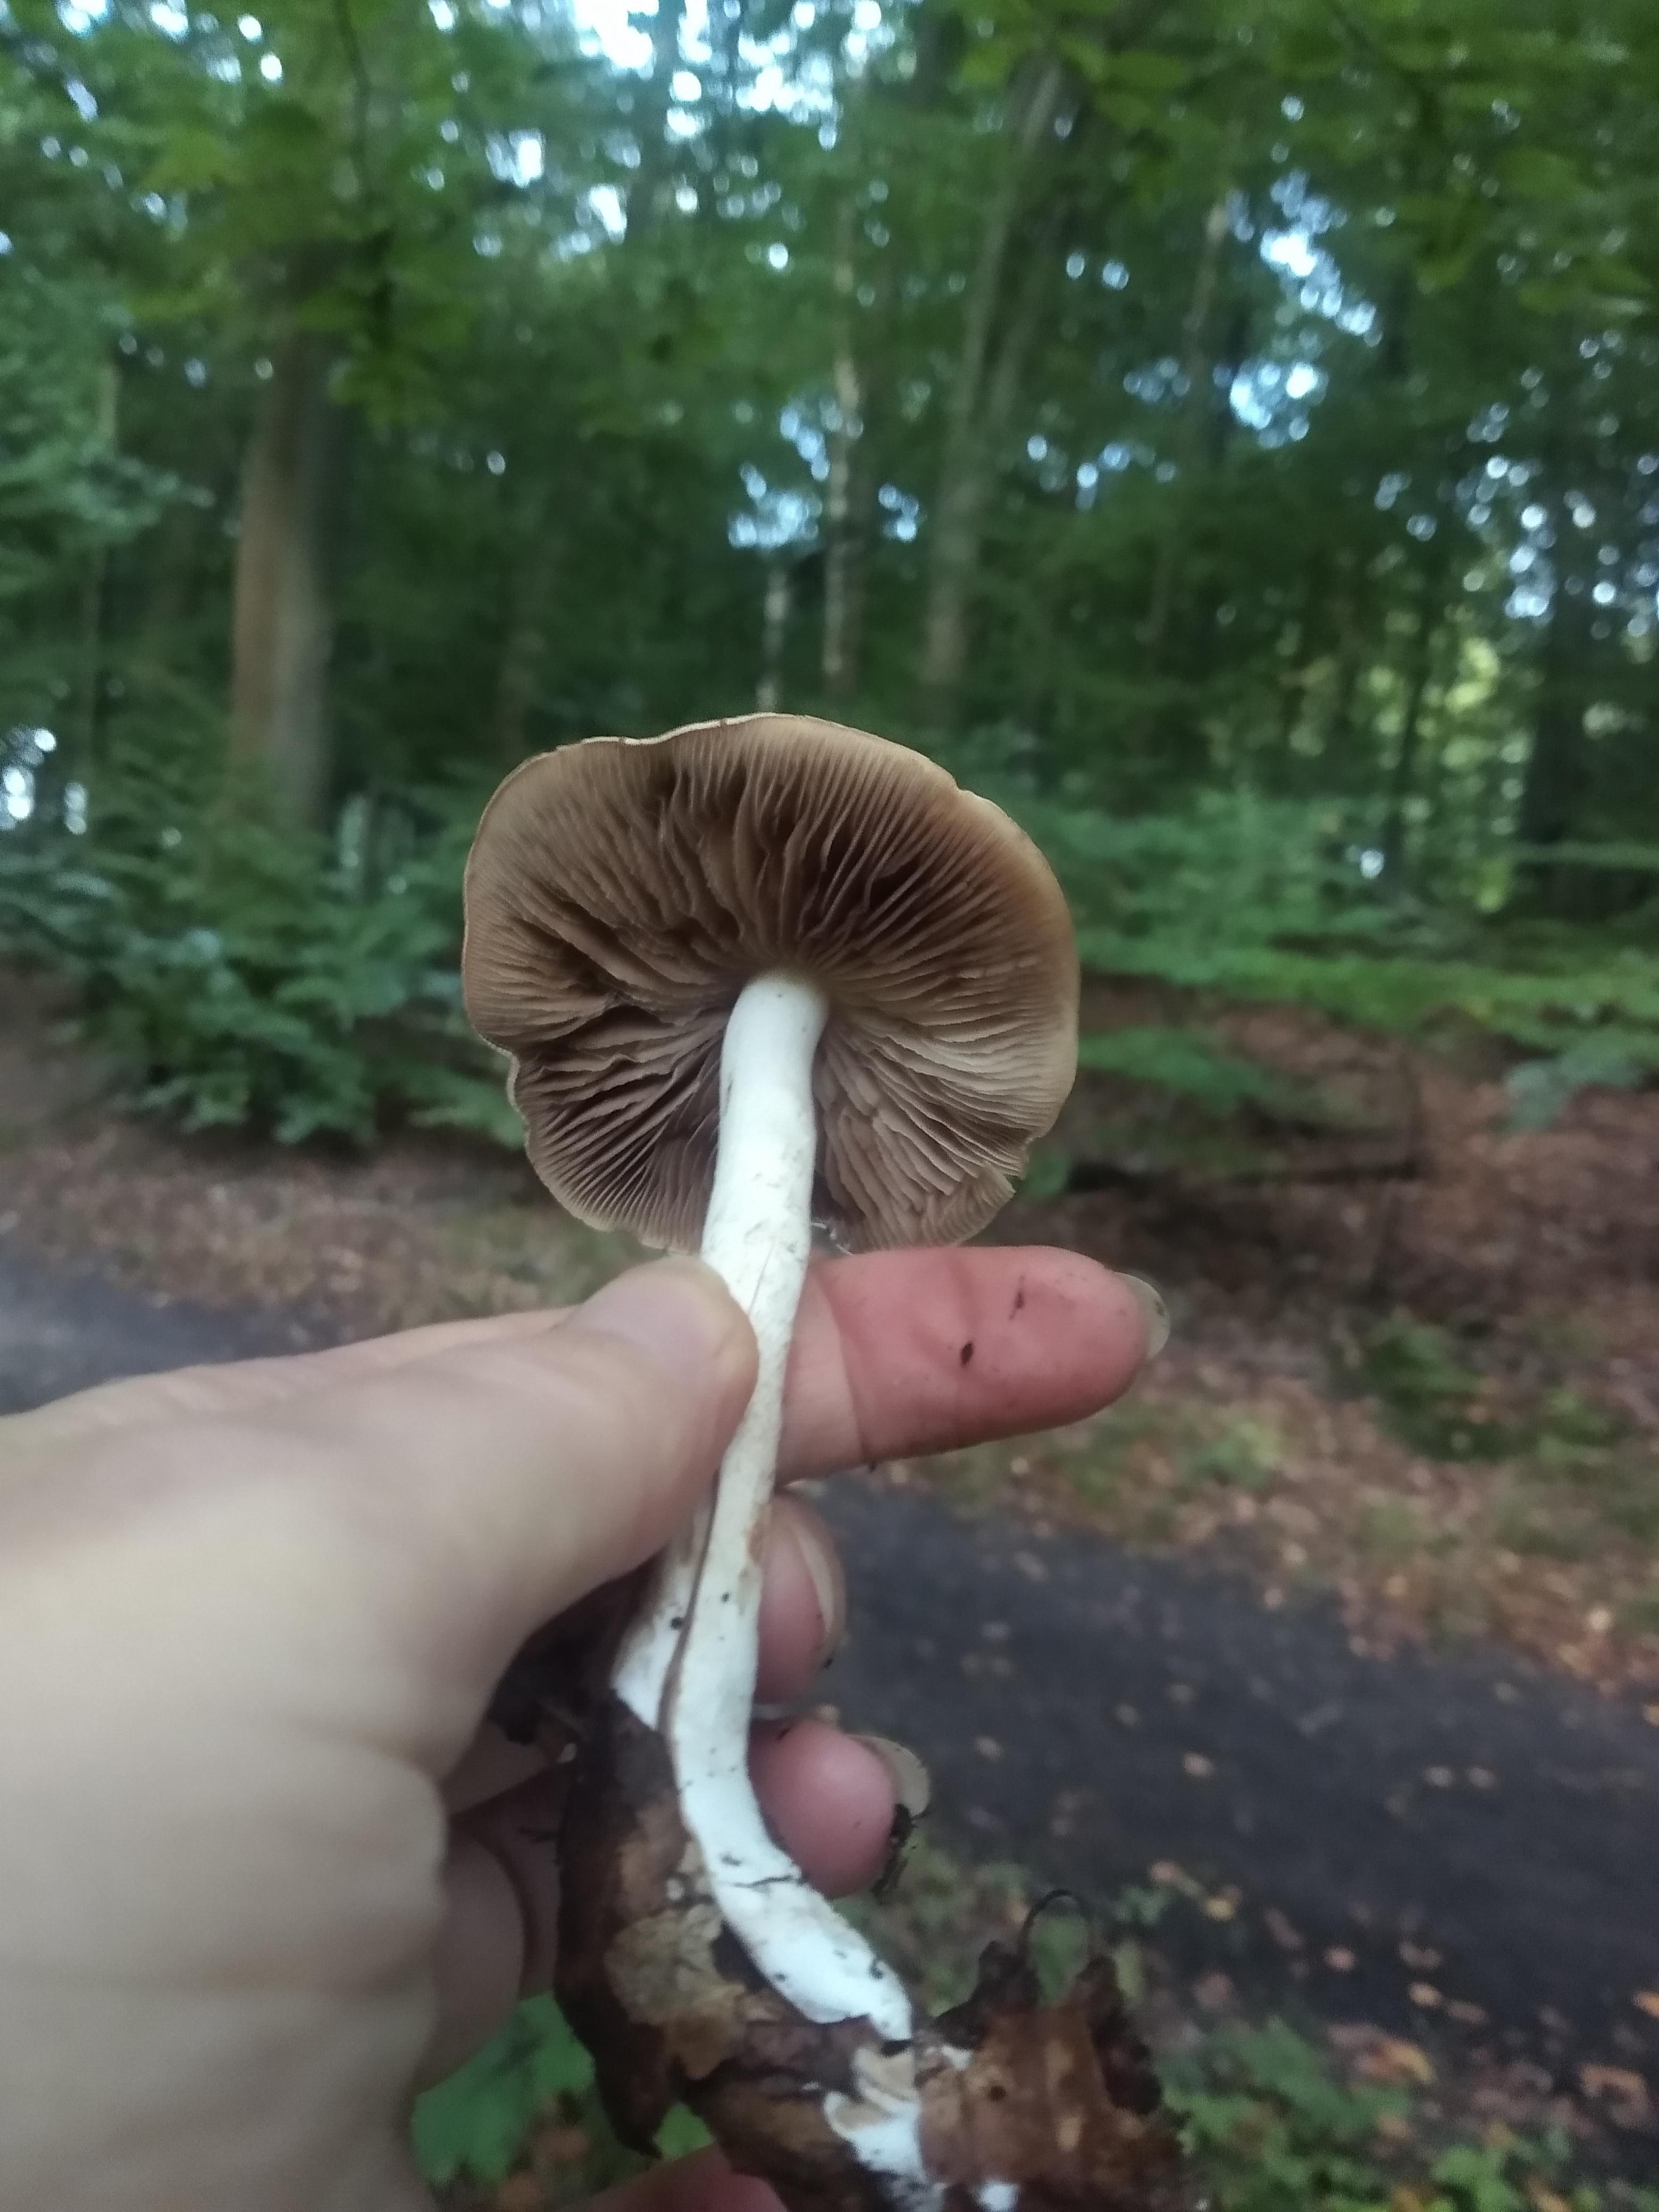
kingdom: Fungi
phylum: Basidiomycota
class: Agaricomycetes
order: Agaricales
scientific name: Agaricales
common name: champignonordenen
